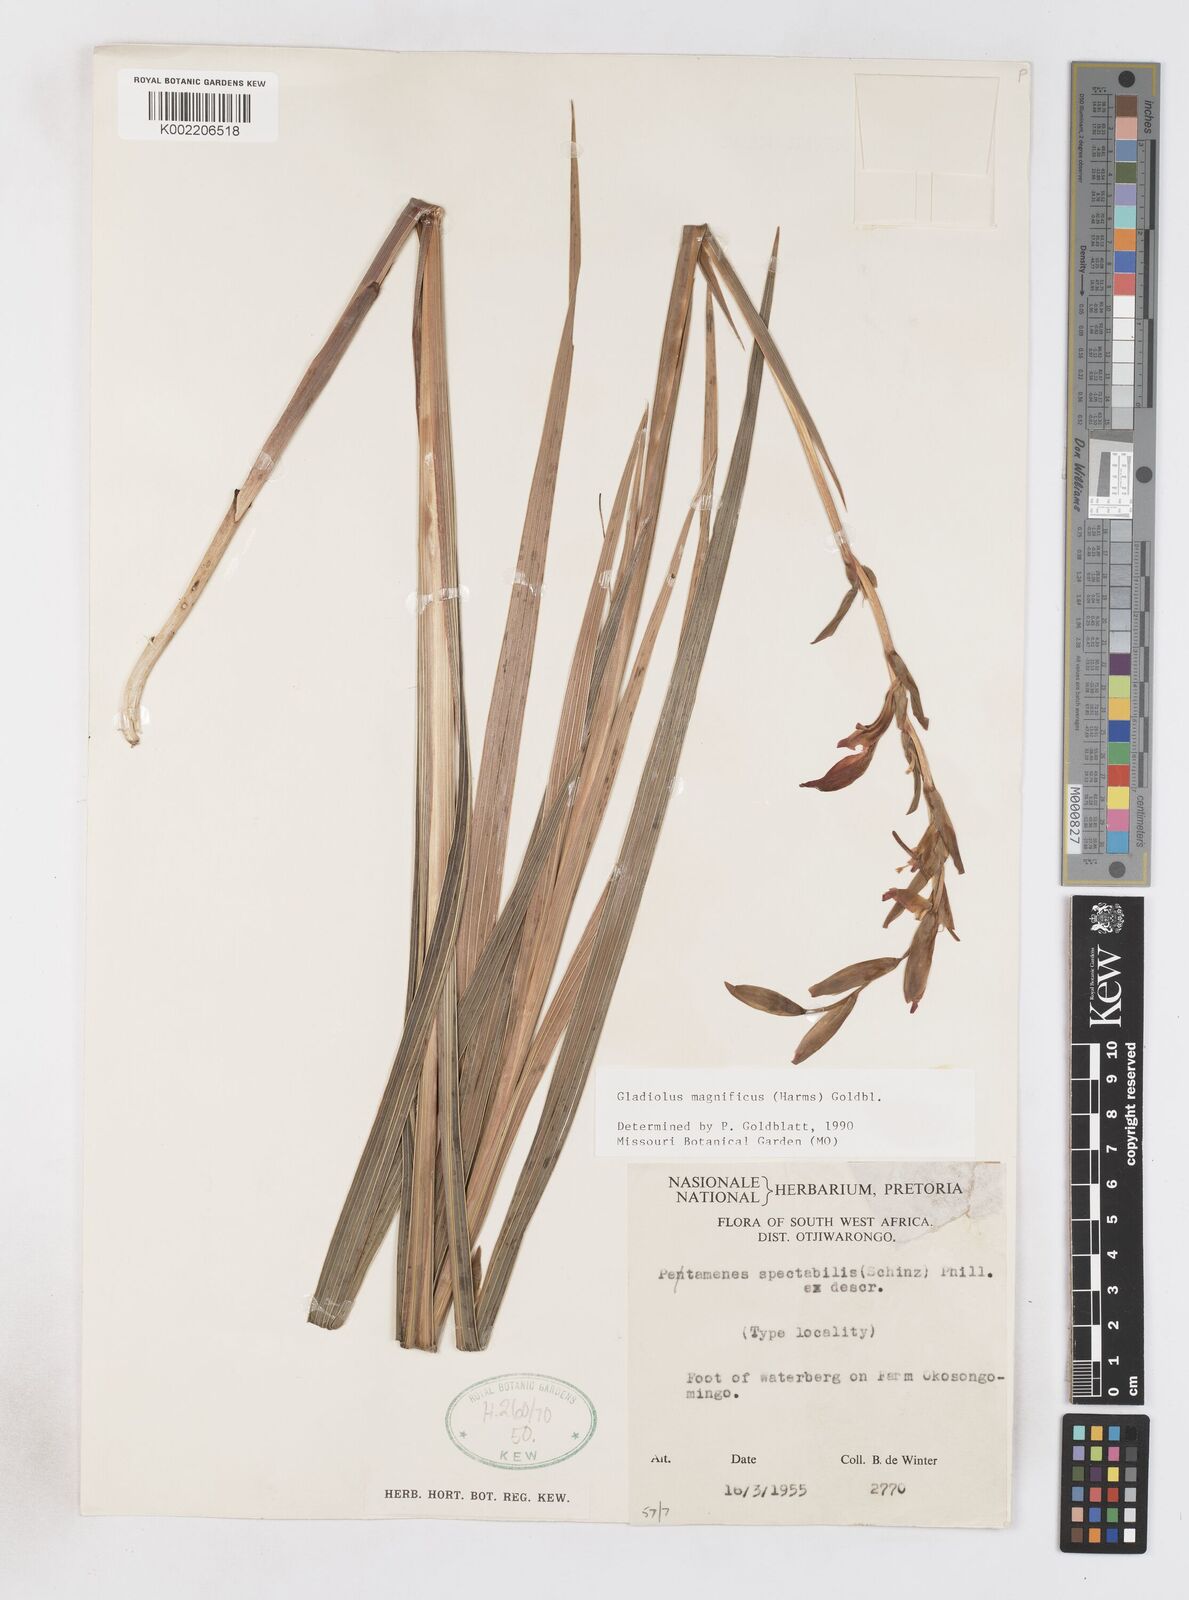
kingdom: Plantae
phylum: Tracheophyta
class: Liliopsida
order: Asparagales
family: Iridaceae
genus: Gladiolus
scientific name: Gladiolus magnificus
